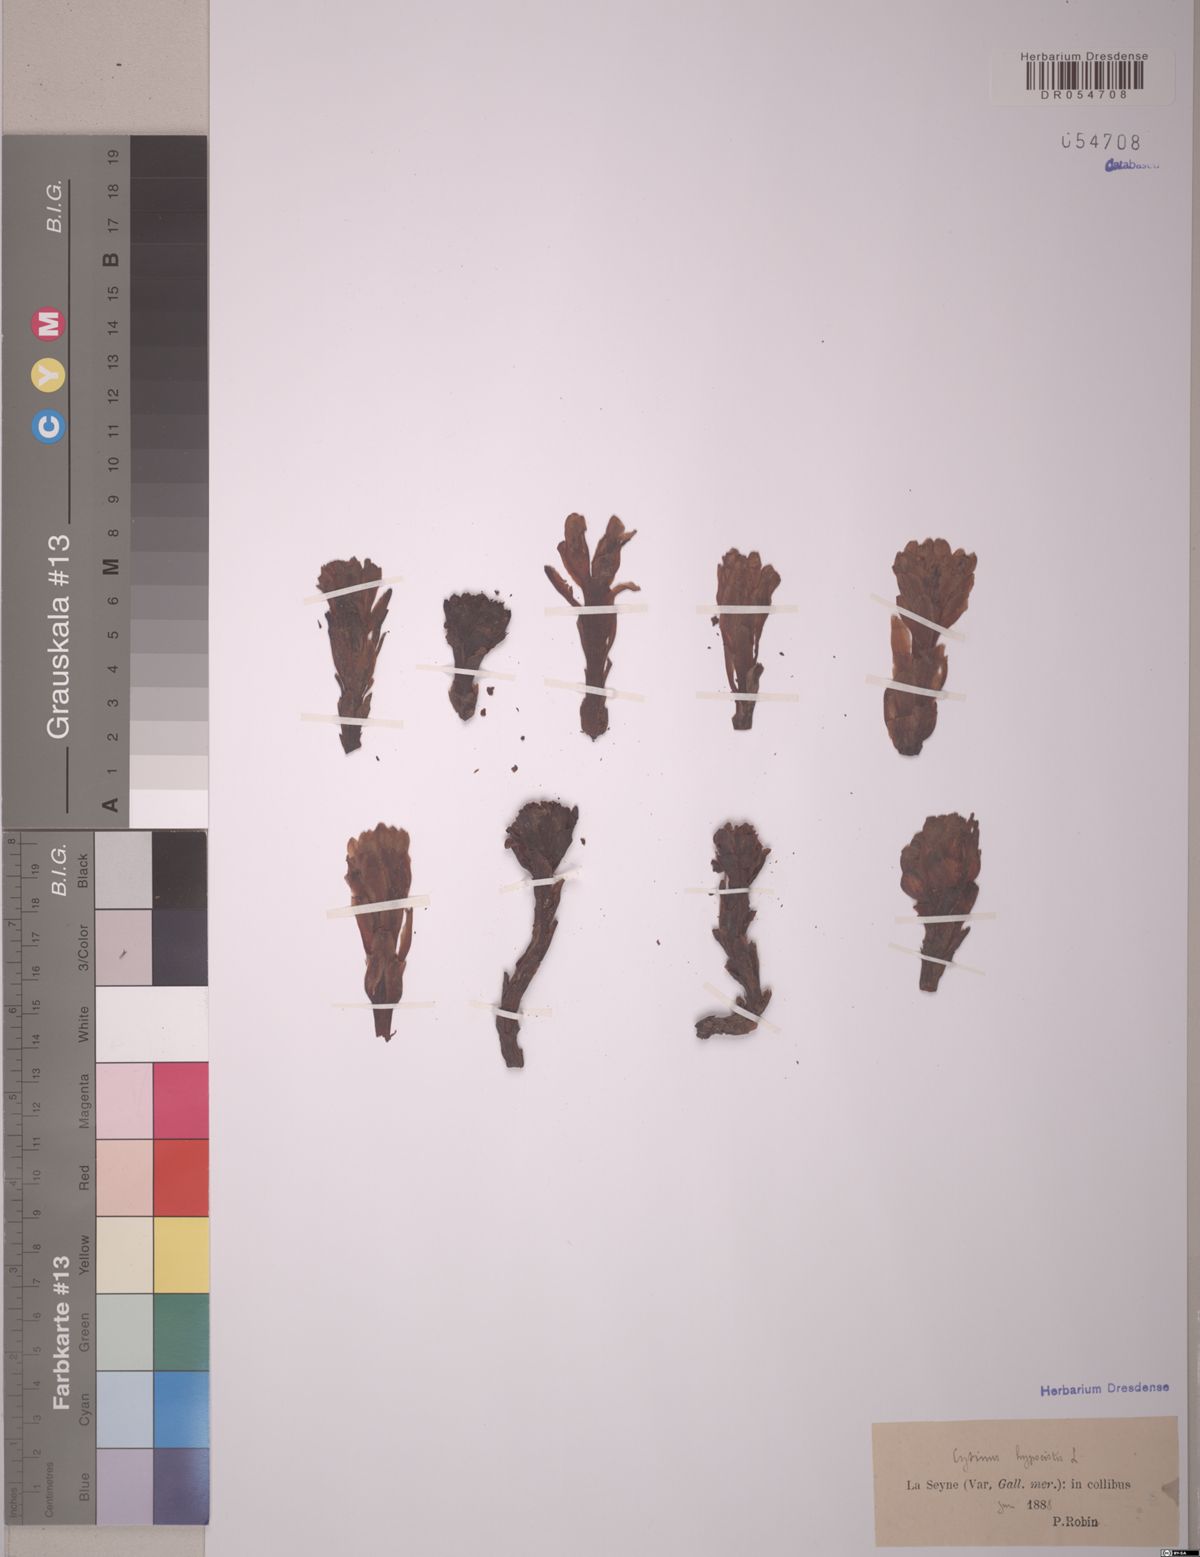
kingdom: Plantae
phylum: Tracheophyta
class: Magnoliopsida
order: Malvales
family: Cytinaceae
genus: Cytinus
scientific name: Cytinus hypocistis
